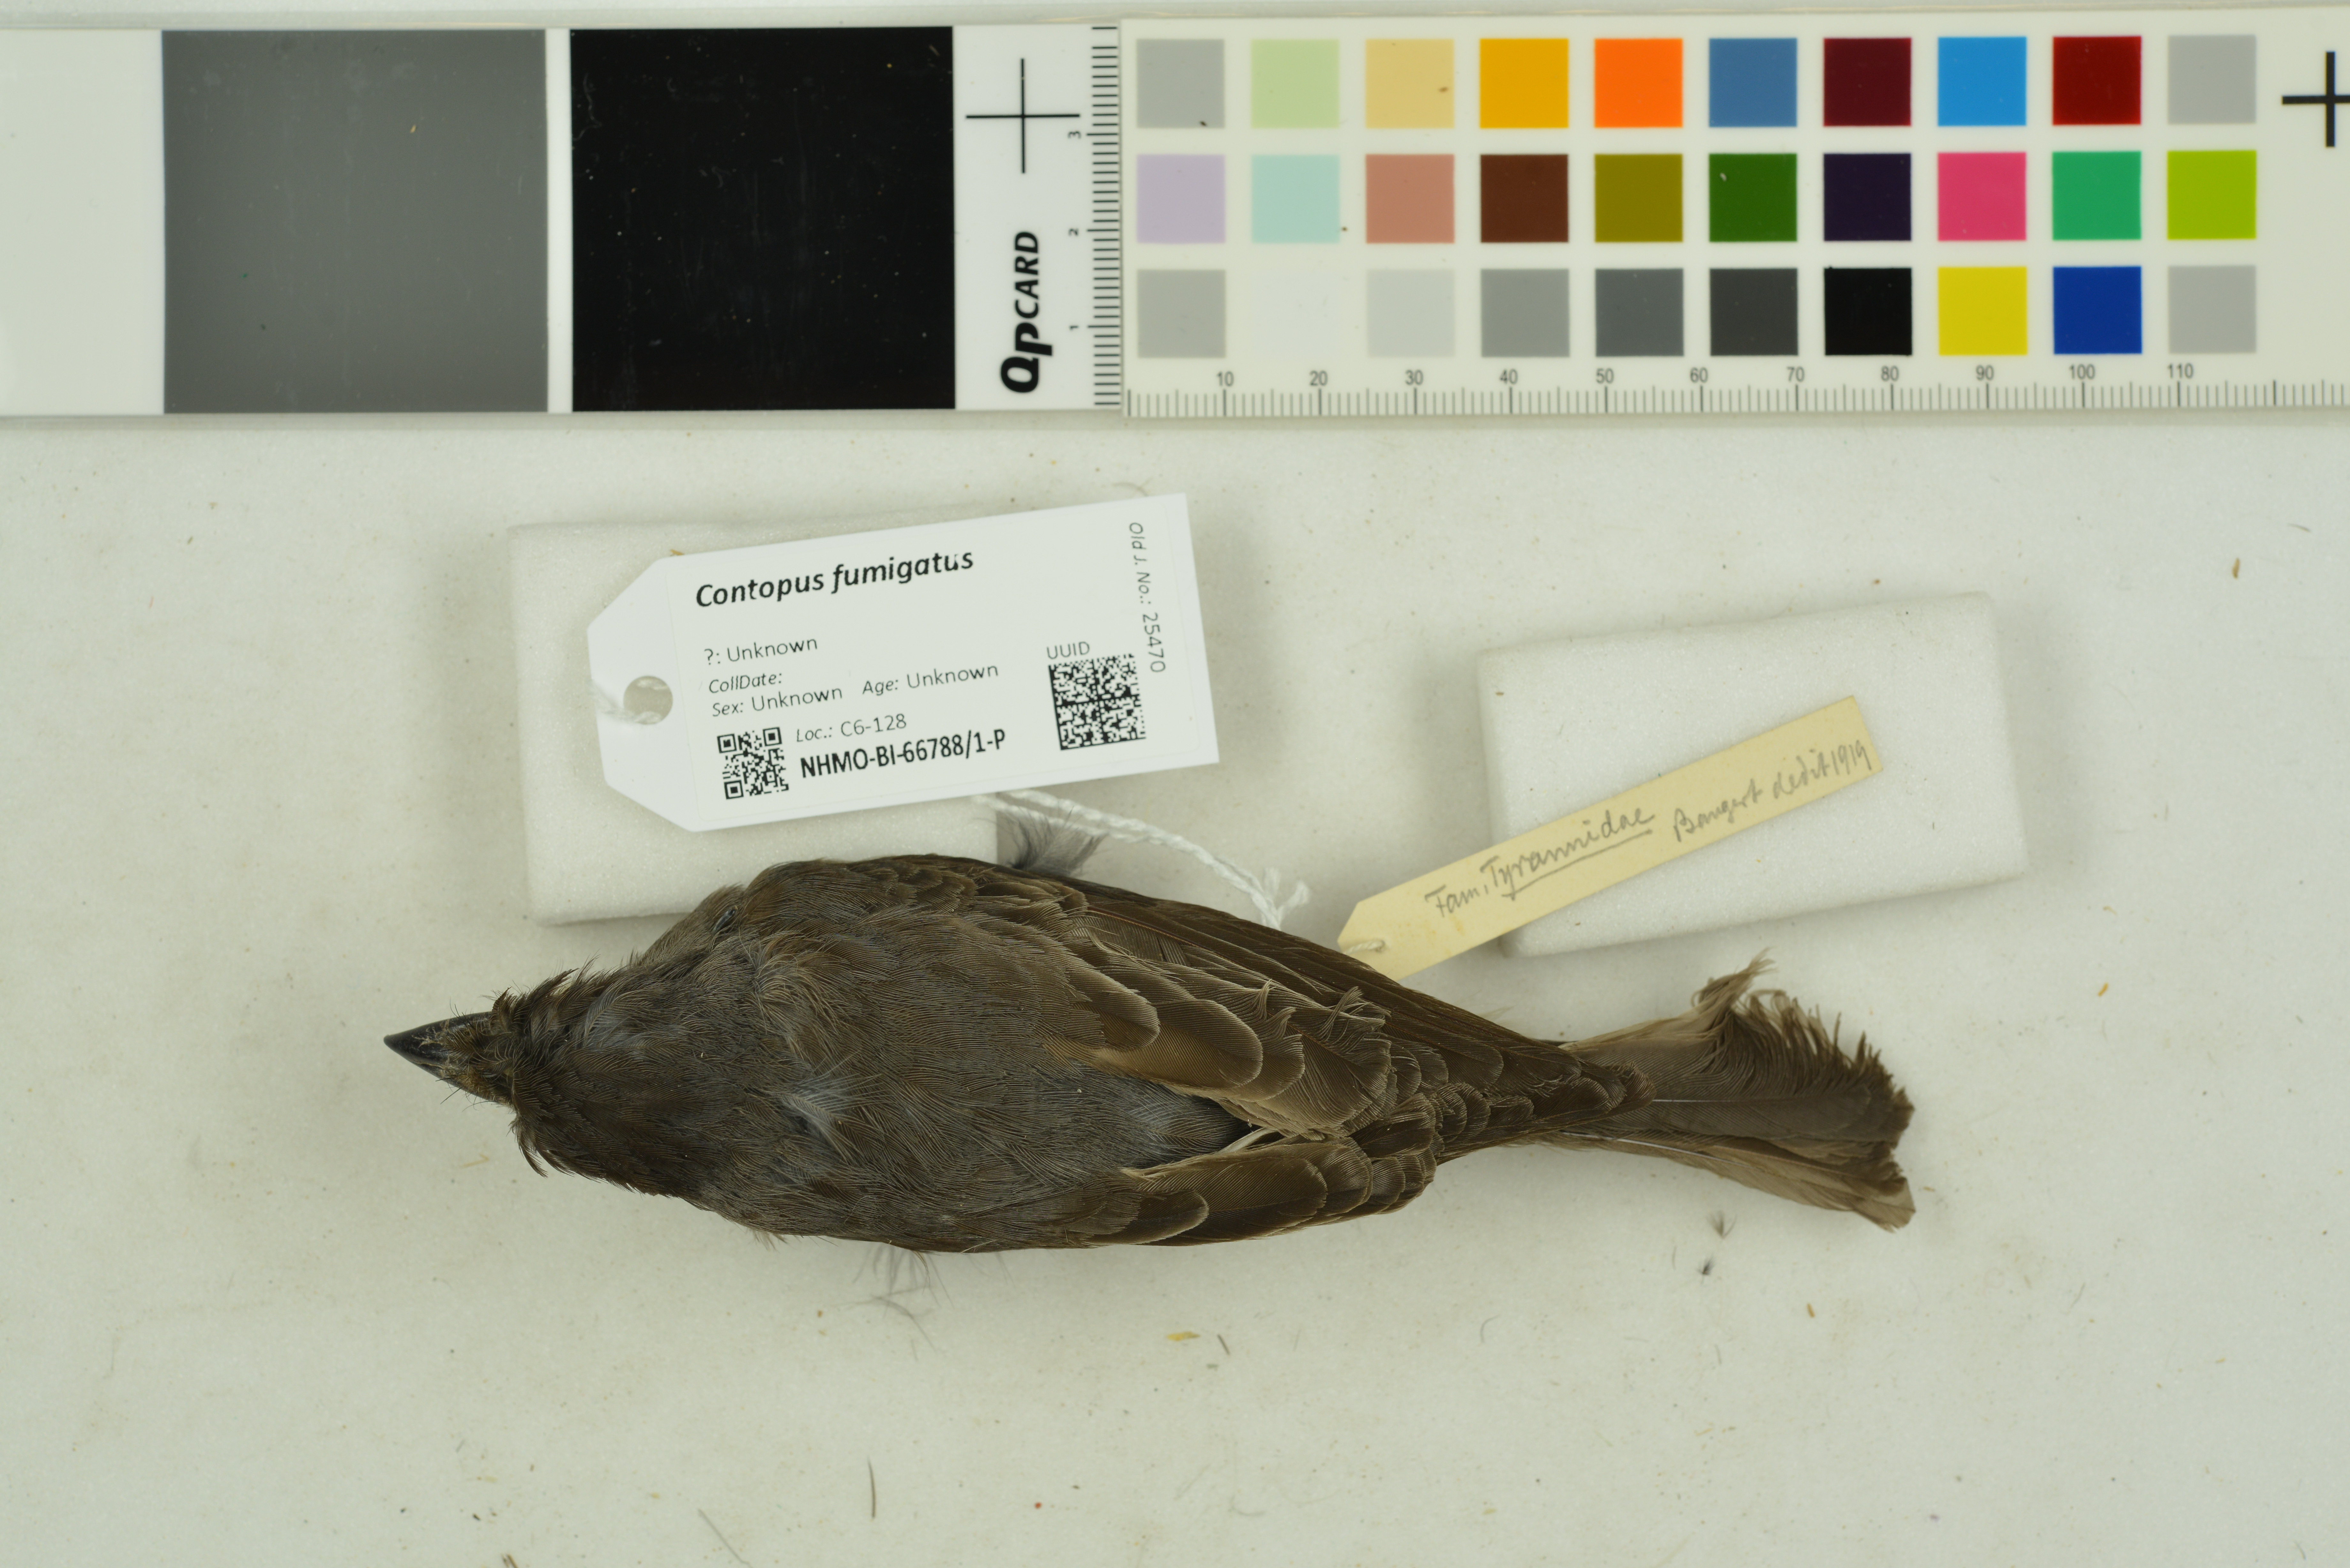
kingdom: Animalia
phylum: Chordata
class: Aves
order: Passeriformes
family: Tyrannidae
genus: Contopus
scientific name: Contopus fumigatus
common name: Smoke-colored pewee
